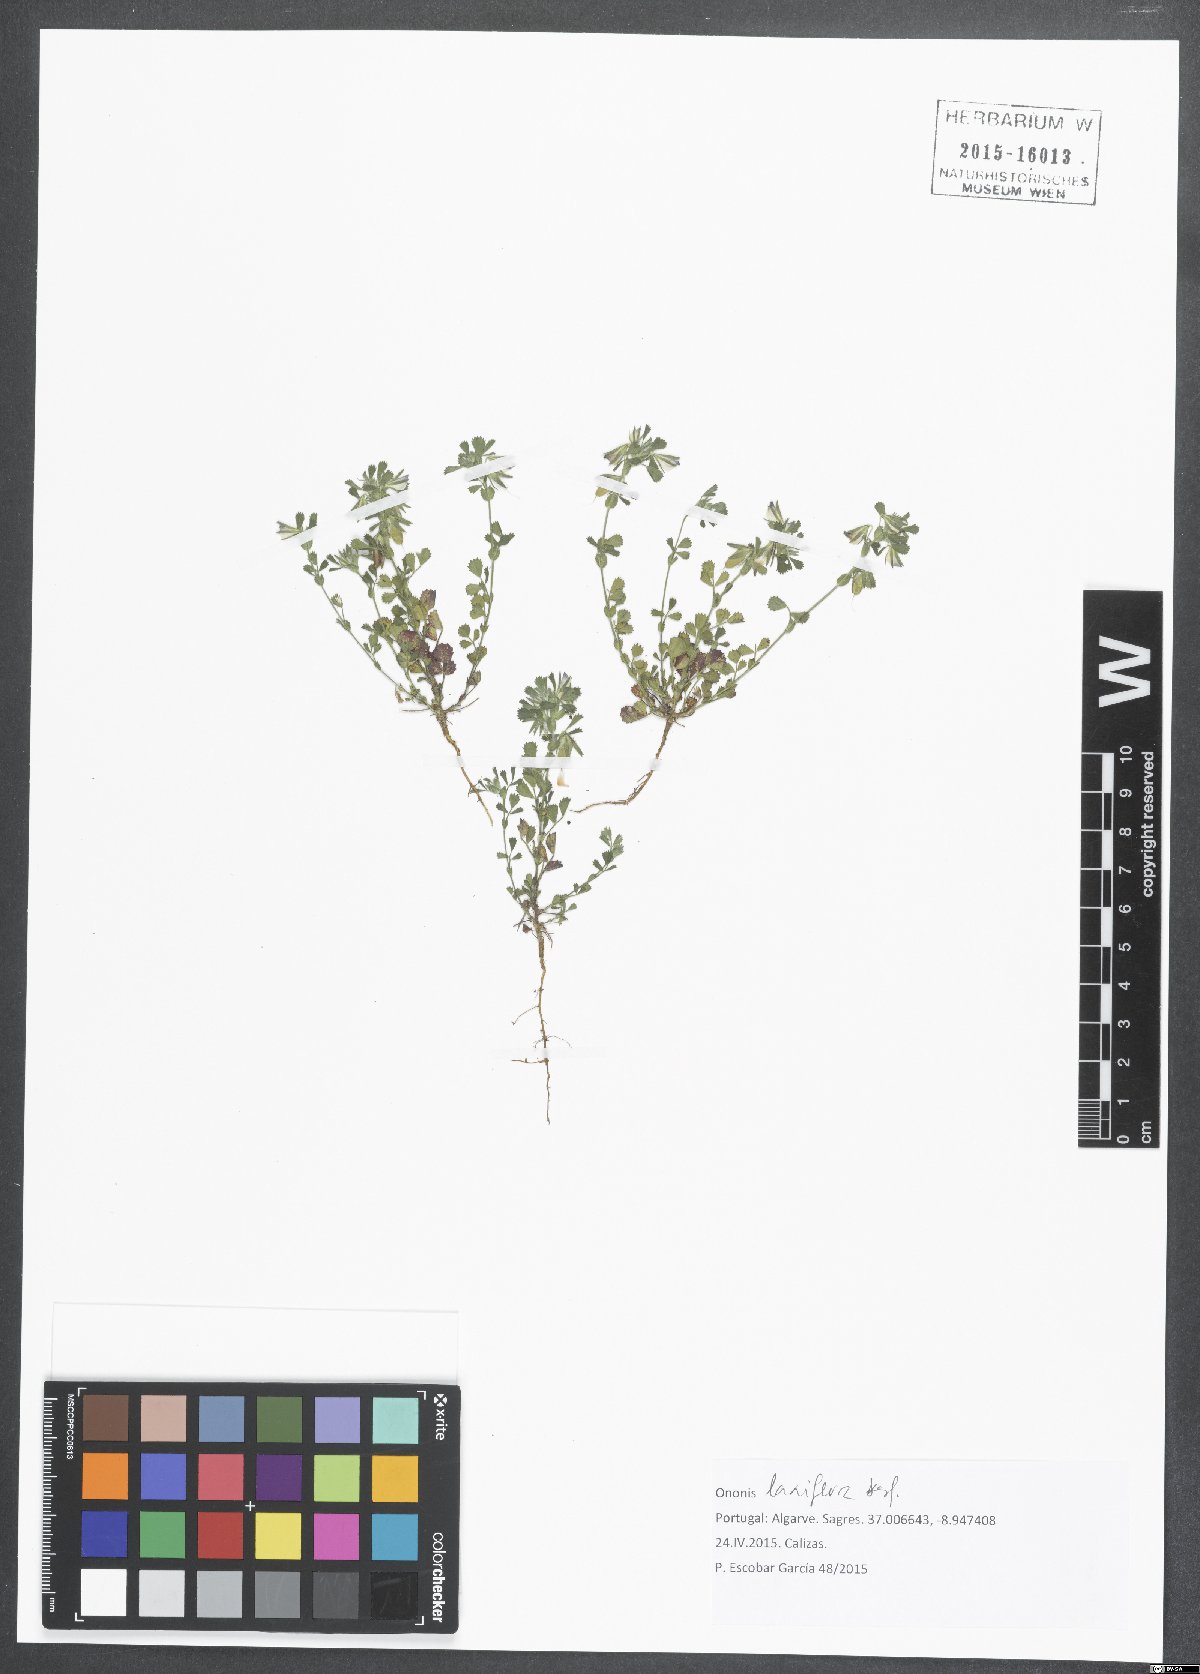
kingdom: Plantae
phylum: Tracheophyta
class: Magnoliopsida
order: Fabales
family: Fabaceae
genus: Ononis
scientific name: Ononis laxiflora
